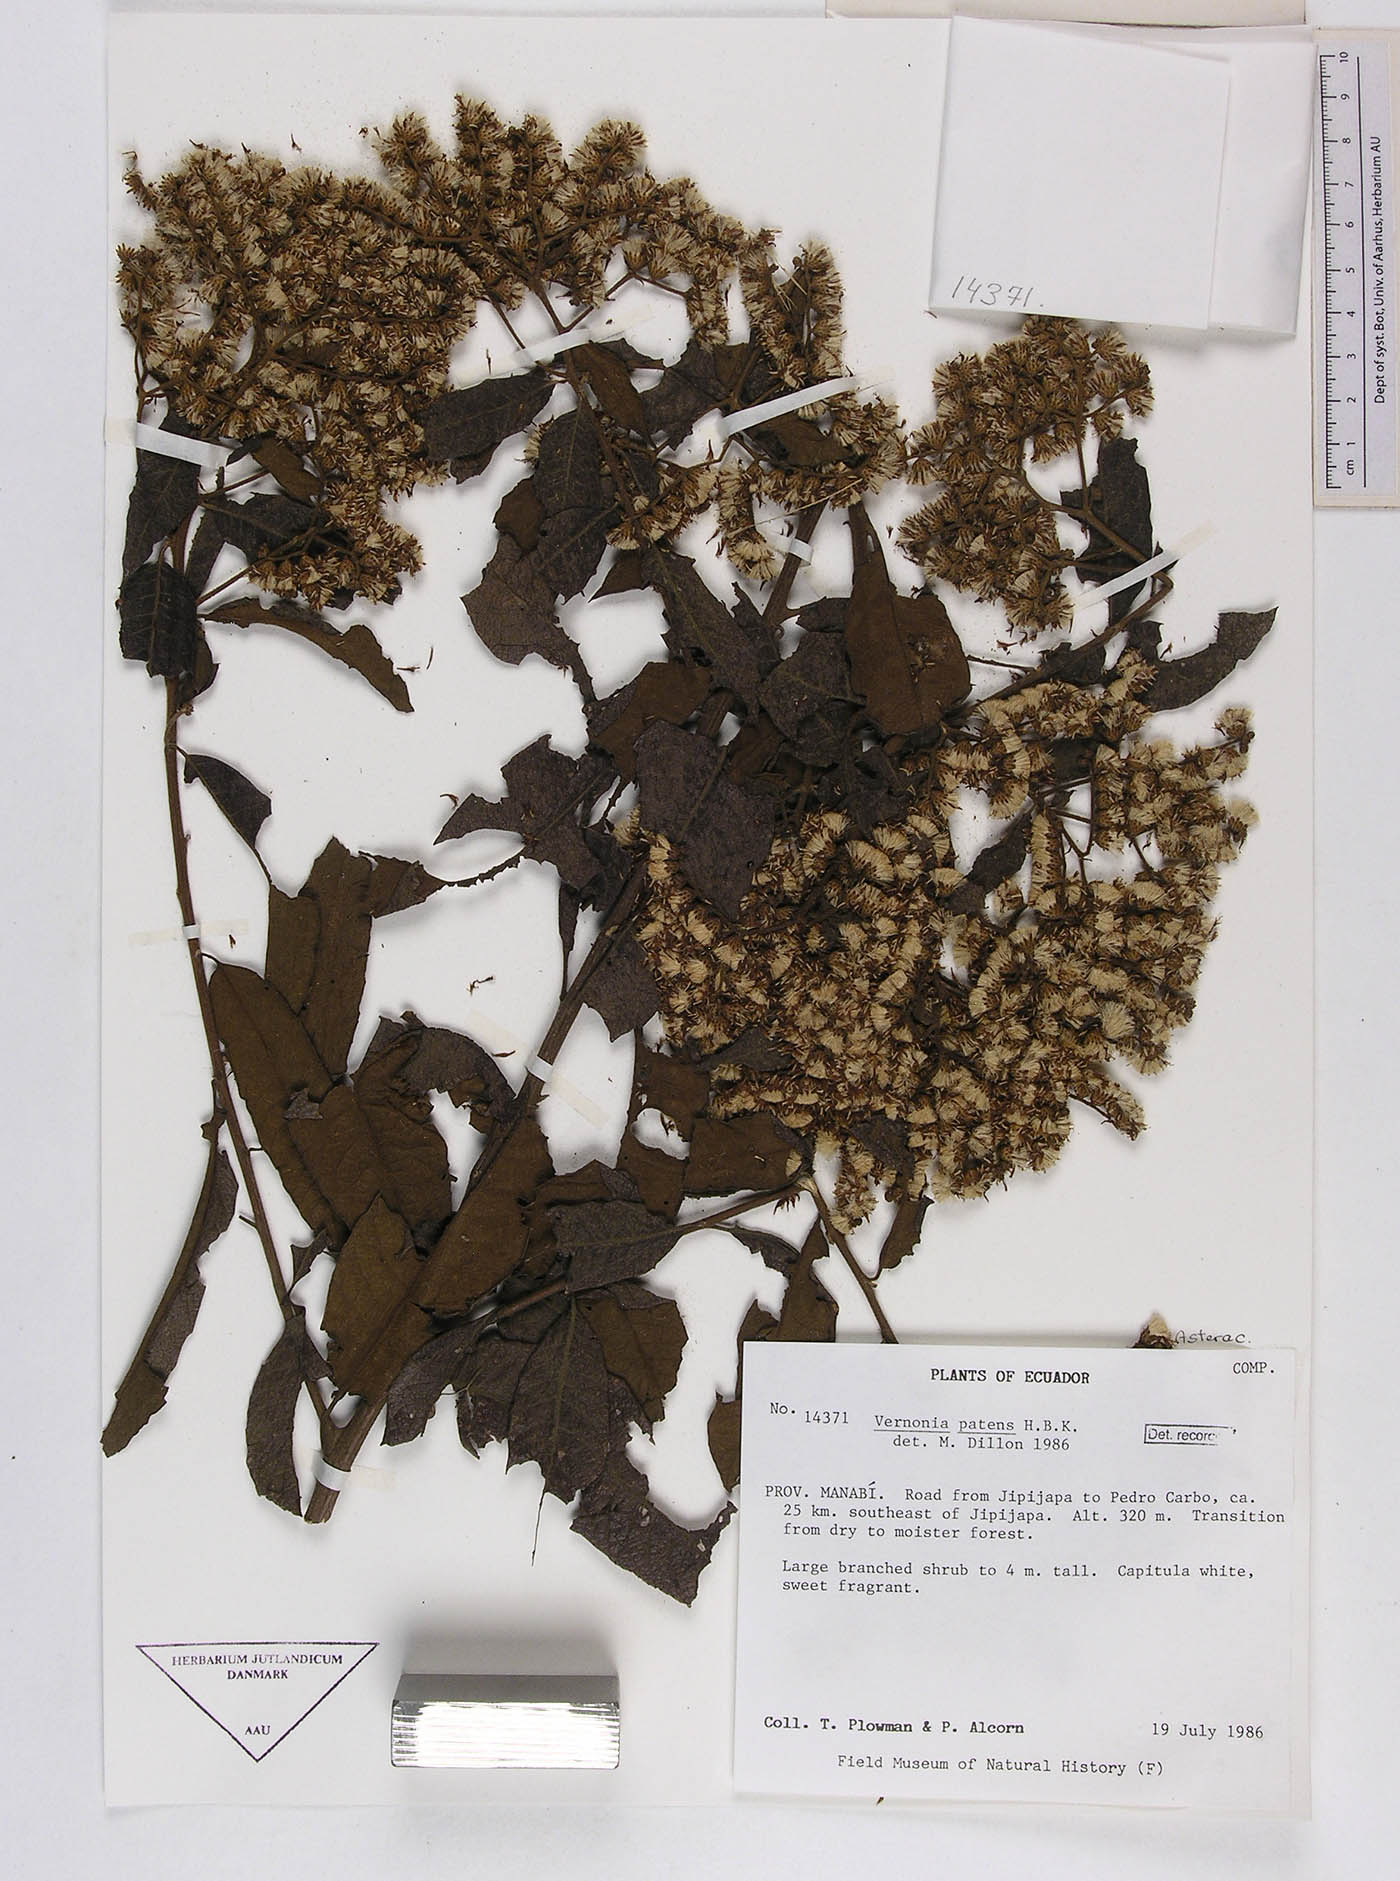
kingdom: Plantae
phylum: Tracheophyta
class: Magnoliopsida
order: Asterales
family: Asteraceae
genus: Vernonanthura
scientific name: Vernonanthura patens
